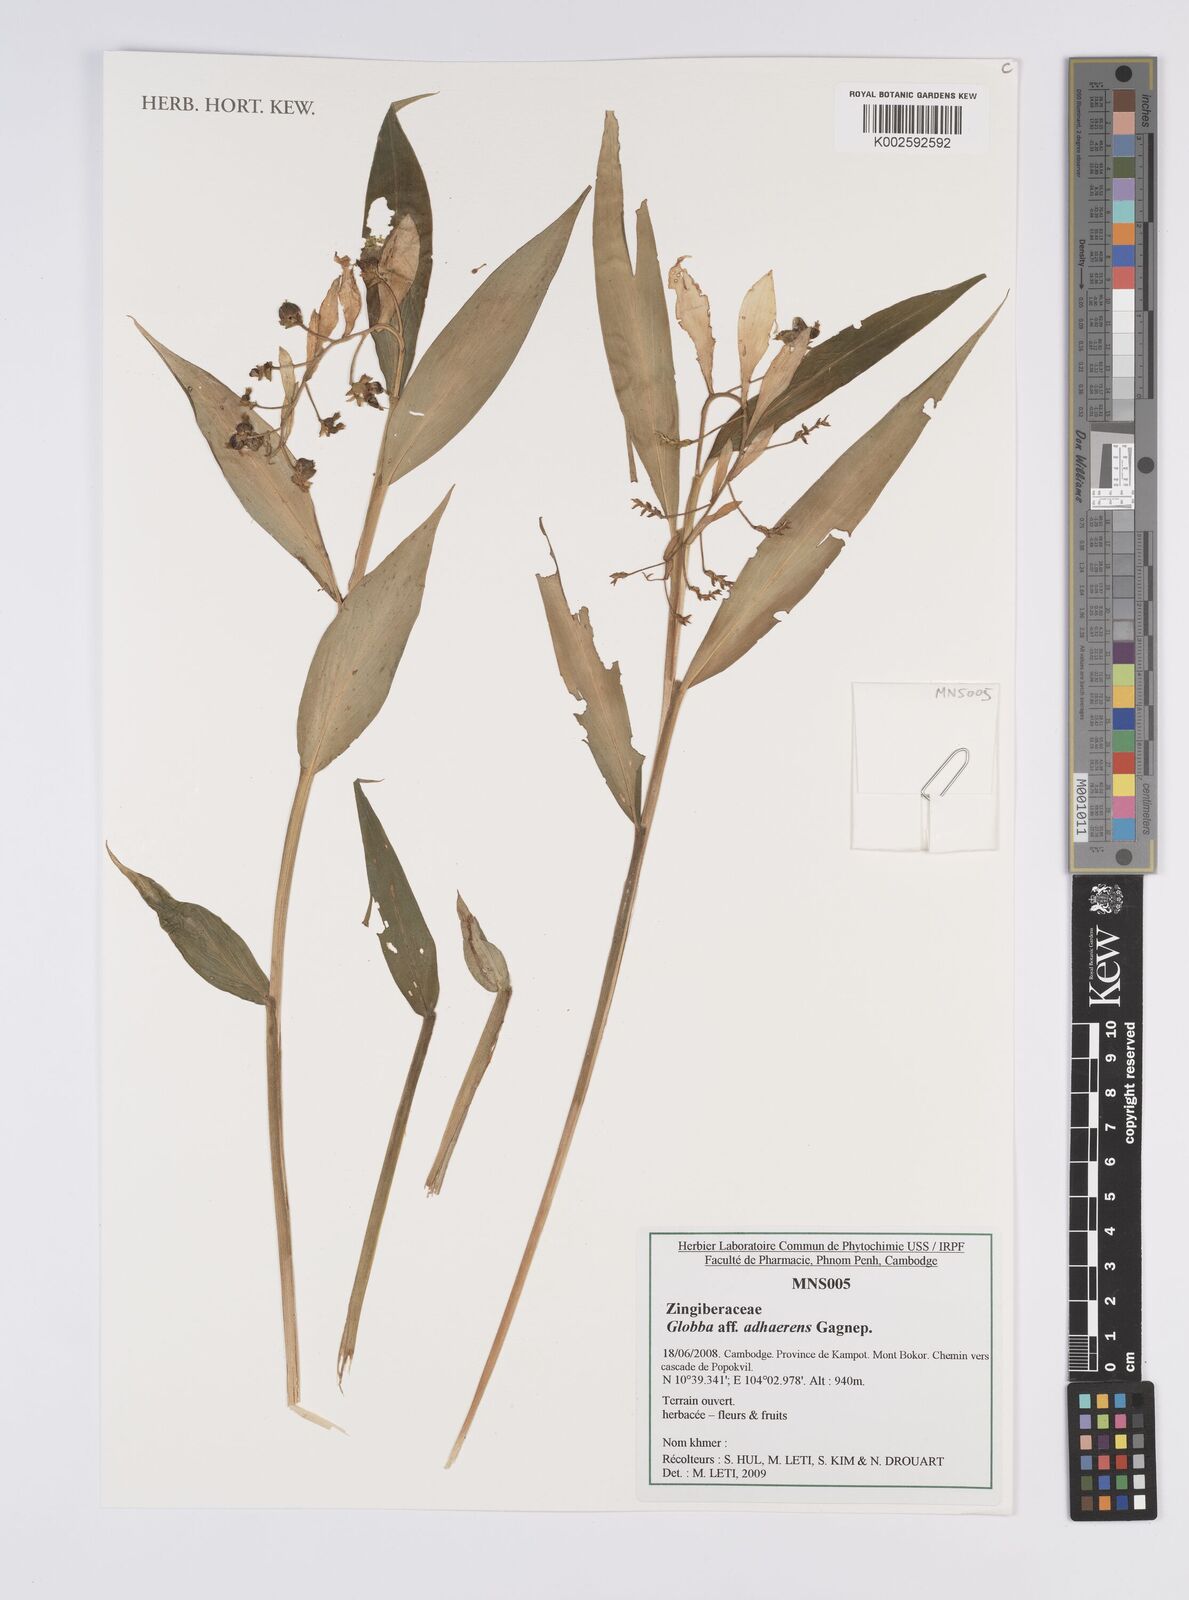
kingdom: Plantae
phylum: Tracheophyta
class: Liliopsida
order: Zingiberales
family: Zingiberaceae
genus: Globba
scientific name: Globba adhaerens
